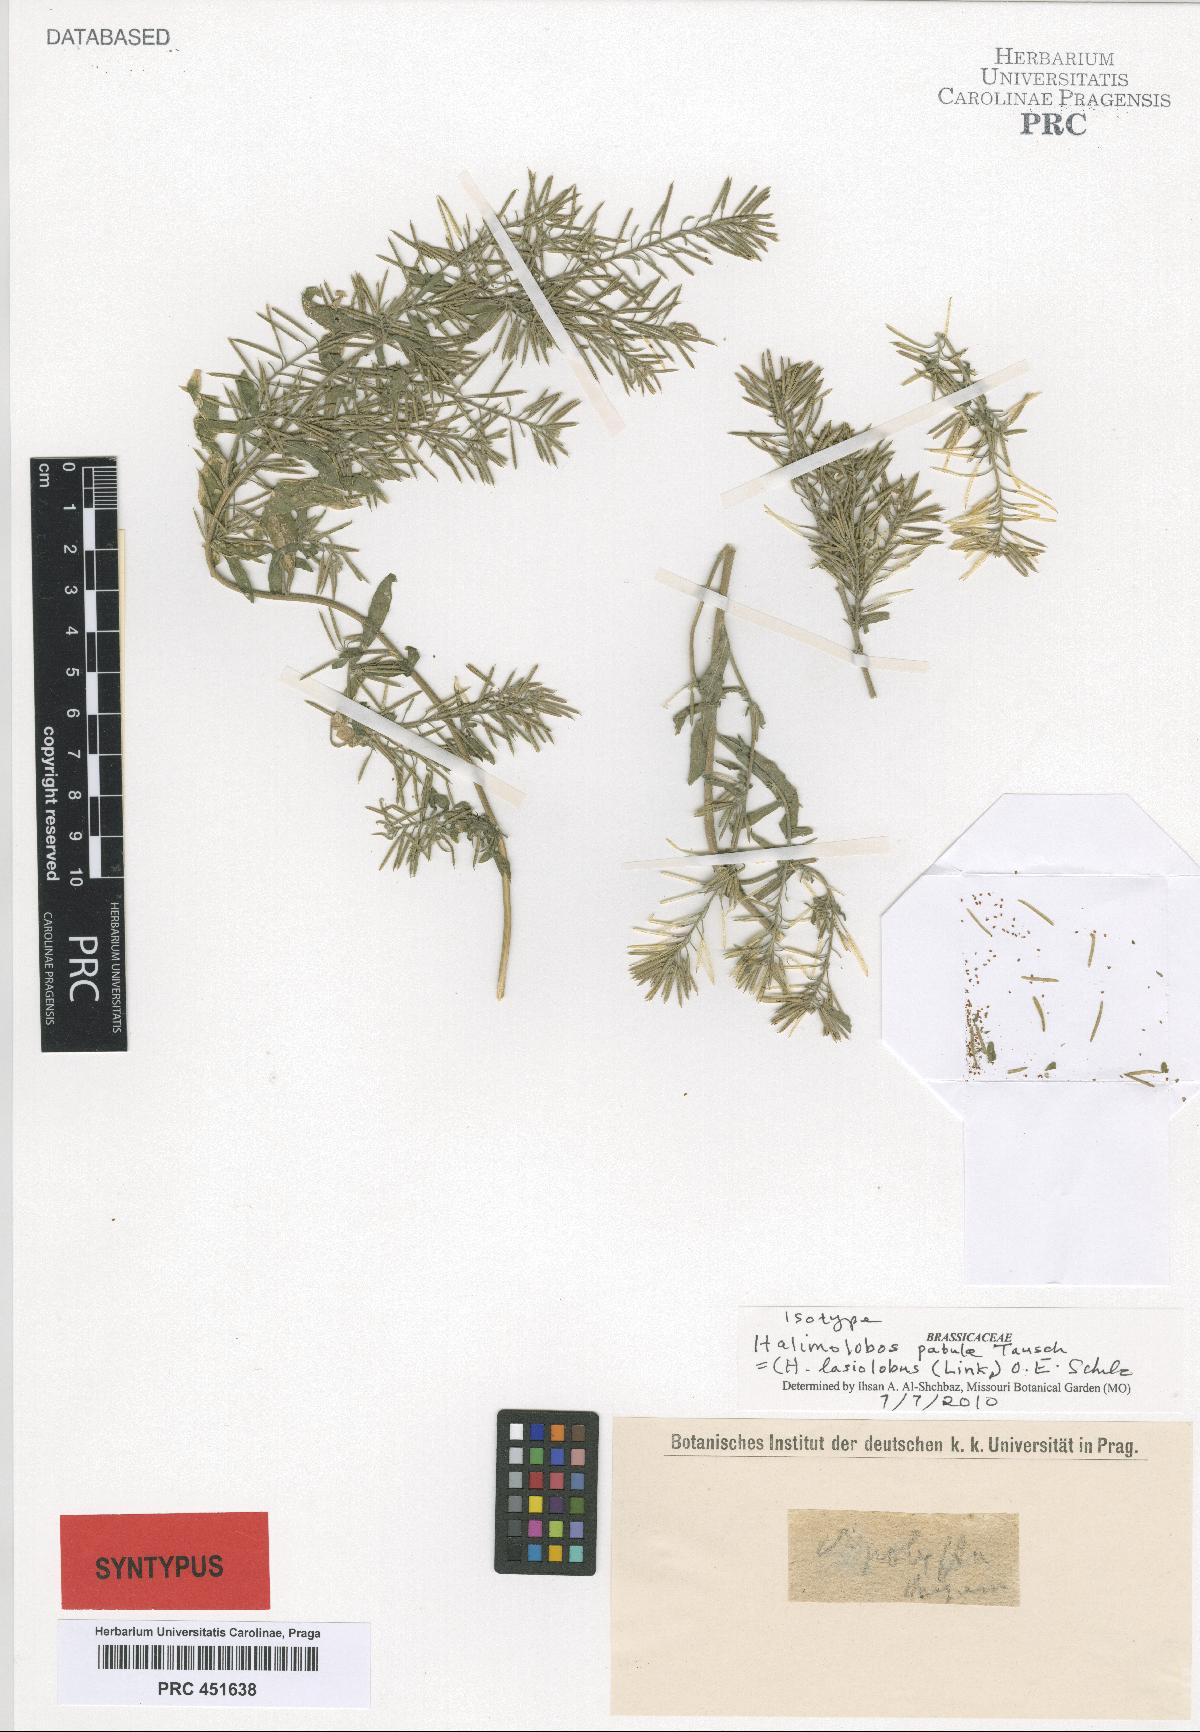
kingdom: Plantae
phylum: Tracheophyta
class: Magnoliopsida
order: Brassicales
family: Brassicaceae
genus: Halimolobos
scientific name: Halimolobos lasiolobus
